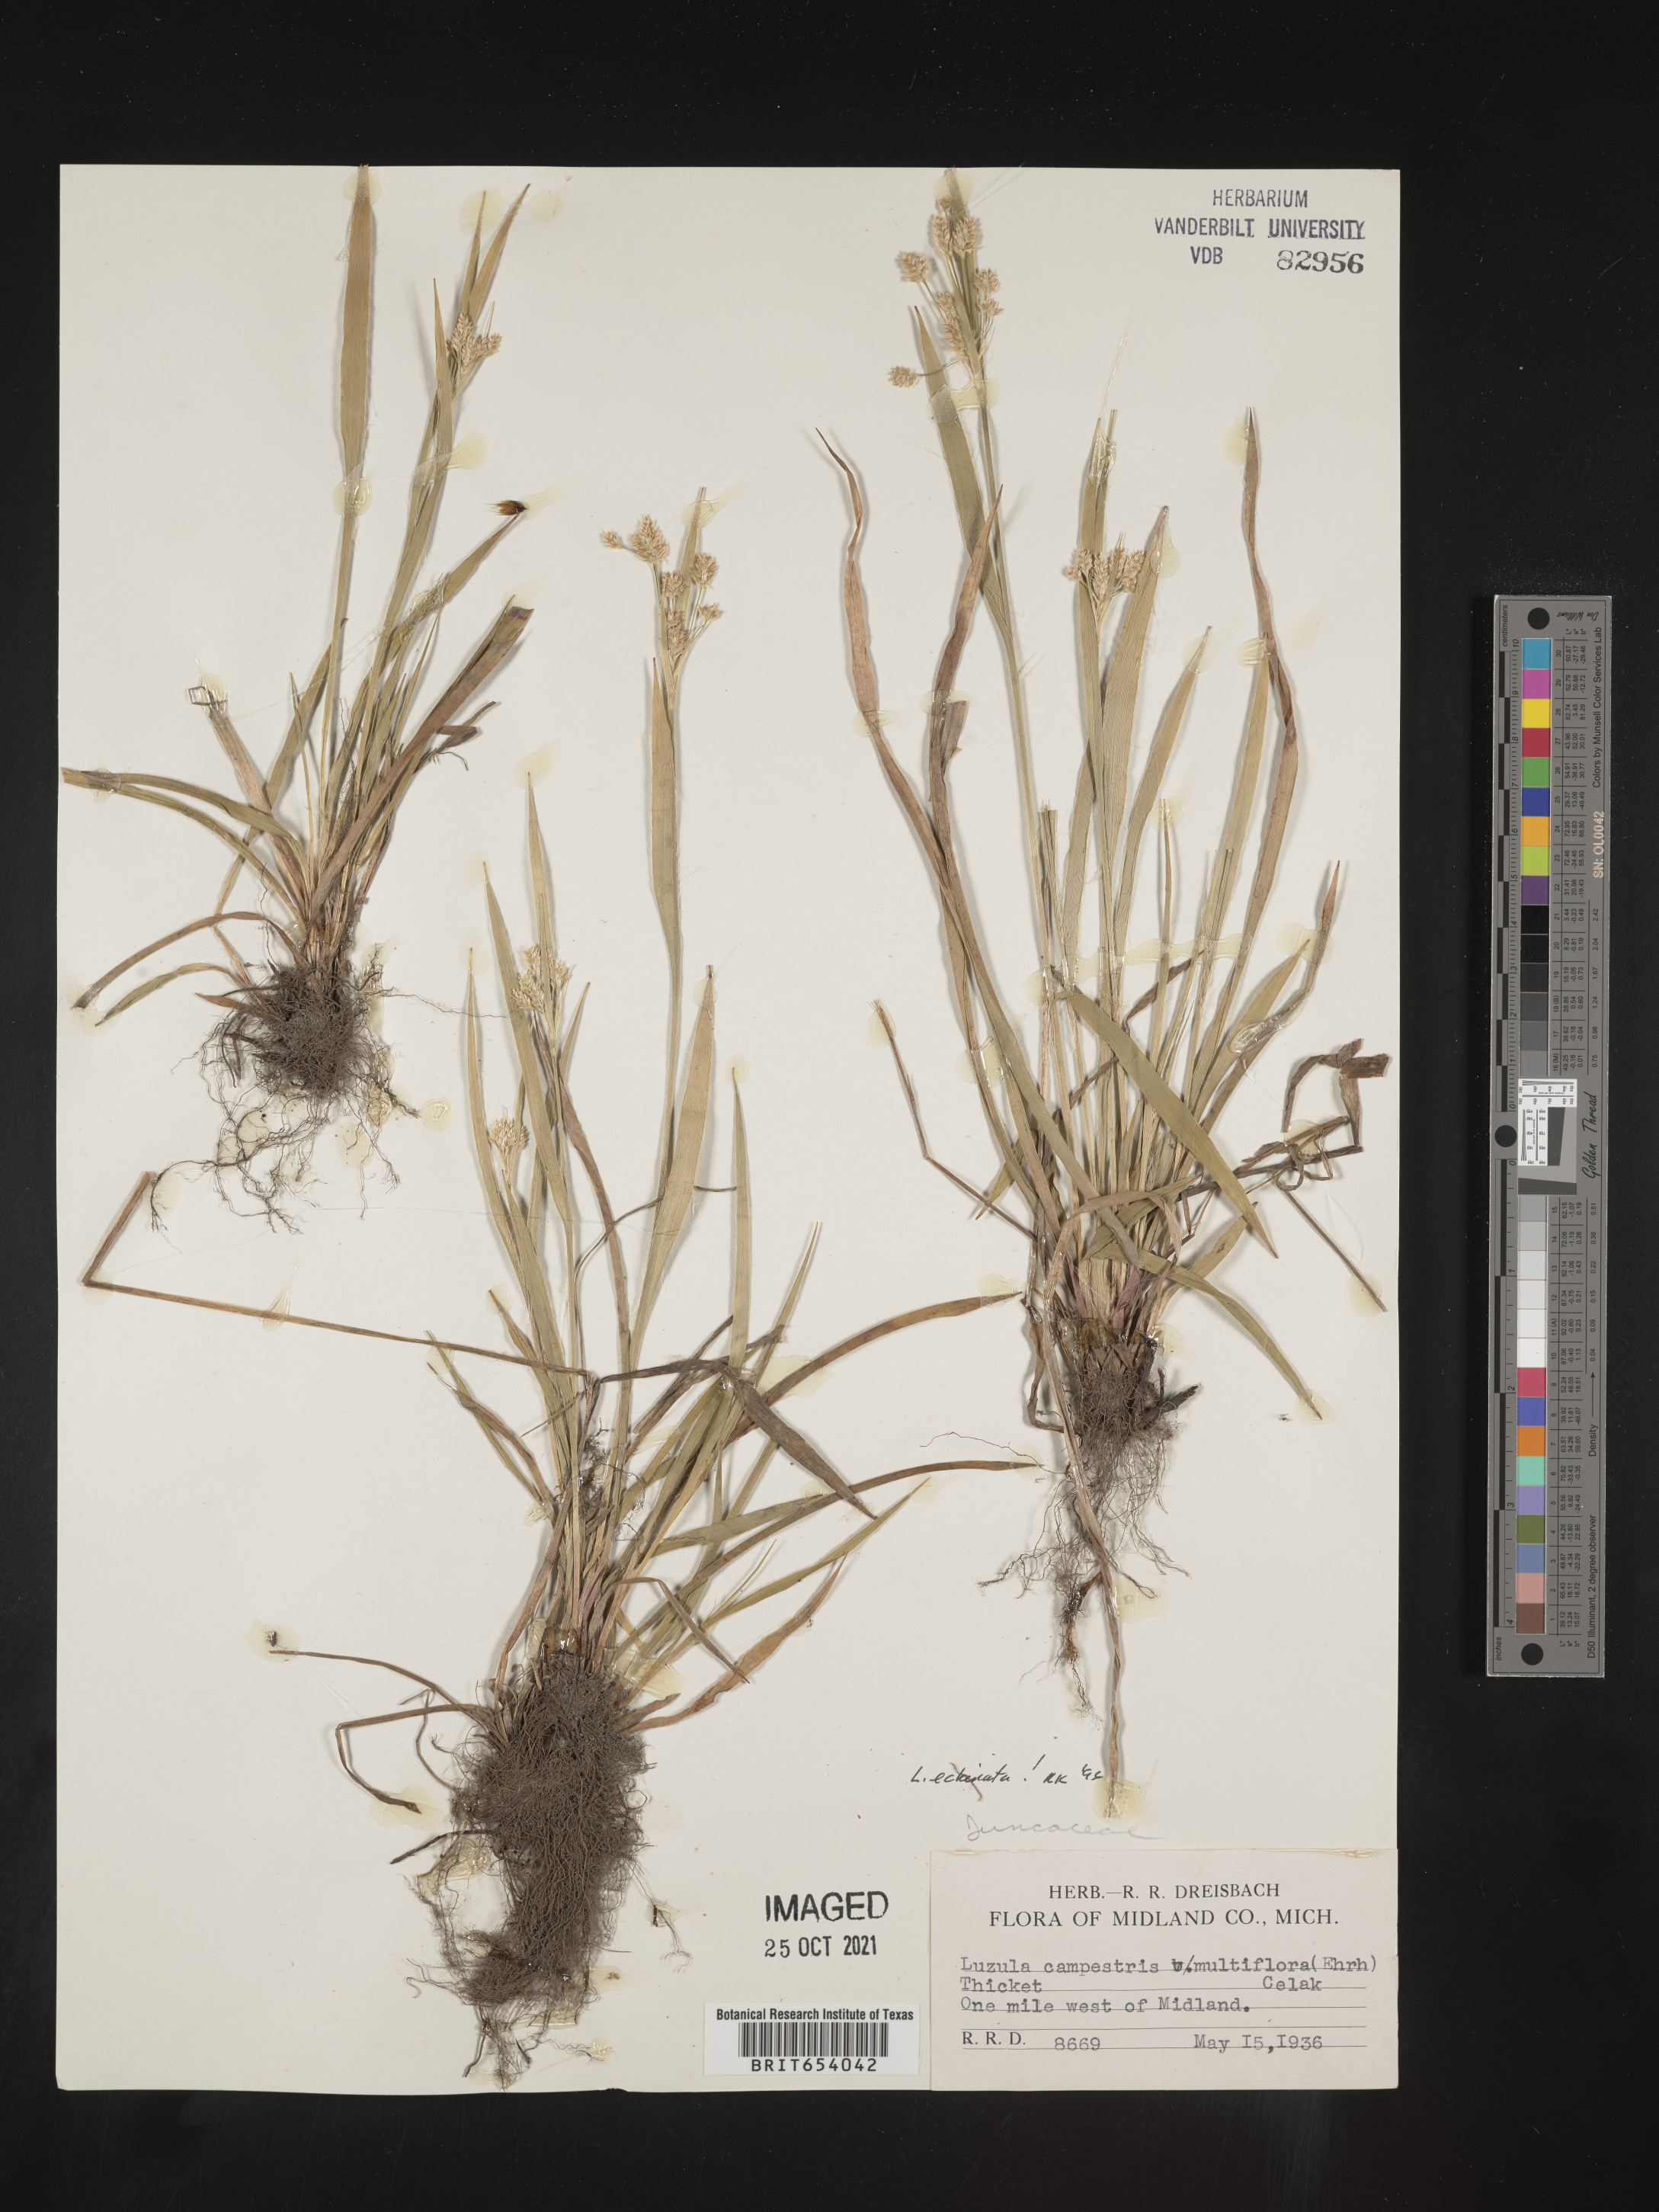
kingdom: Plantae
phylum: Tracheophyta
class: Liliopsida
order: Poales
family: Juncaceae
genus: Luzula
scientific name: Luzula echinata
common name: Hedgehog woodrush
